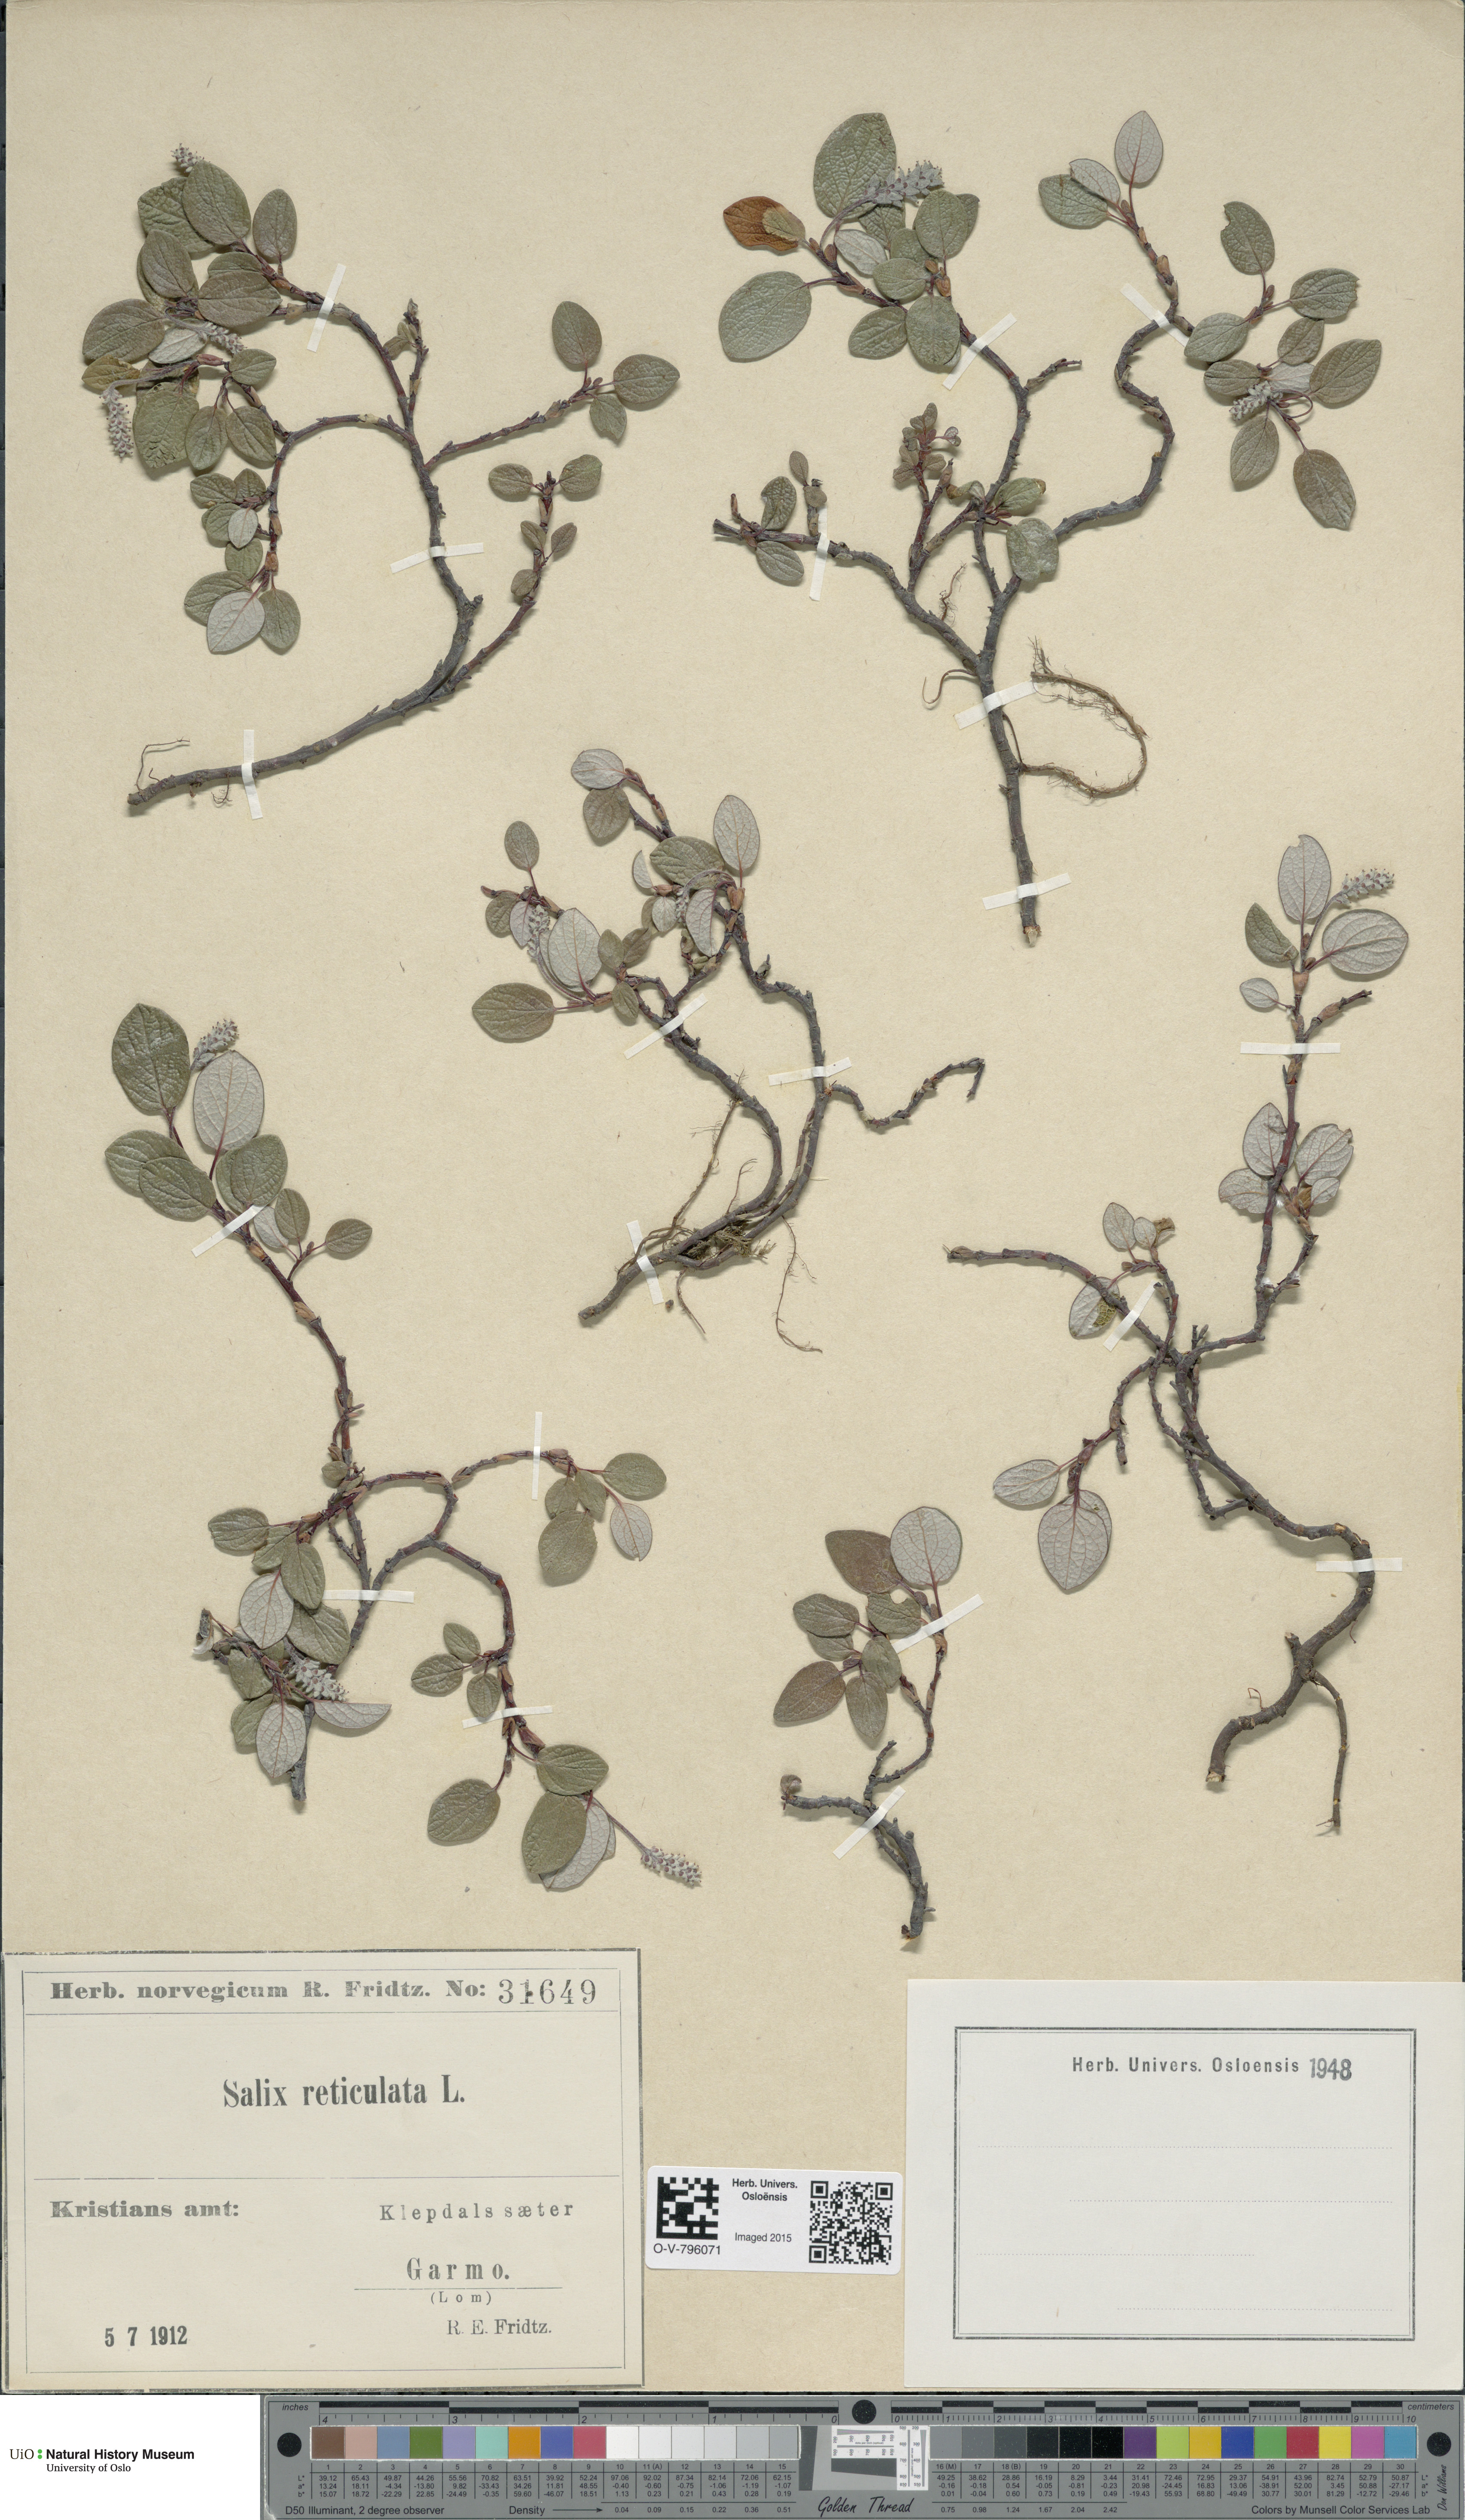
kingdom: Plantae
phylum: Tracheophyta
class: Magnoliopsida
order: Malpighiales
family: Salicaceae
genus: Salix
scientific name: Salix reticulata
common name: Net-leaved willow
